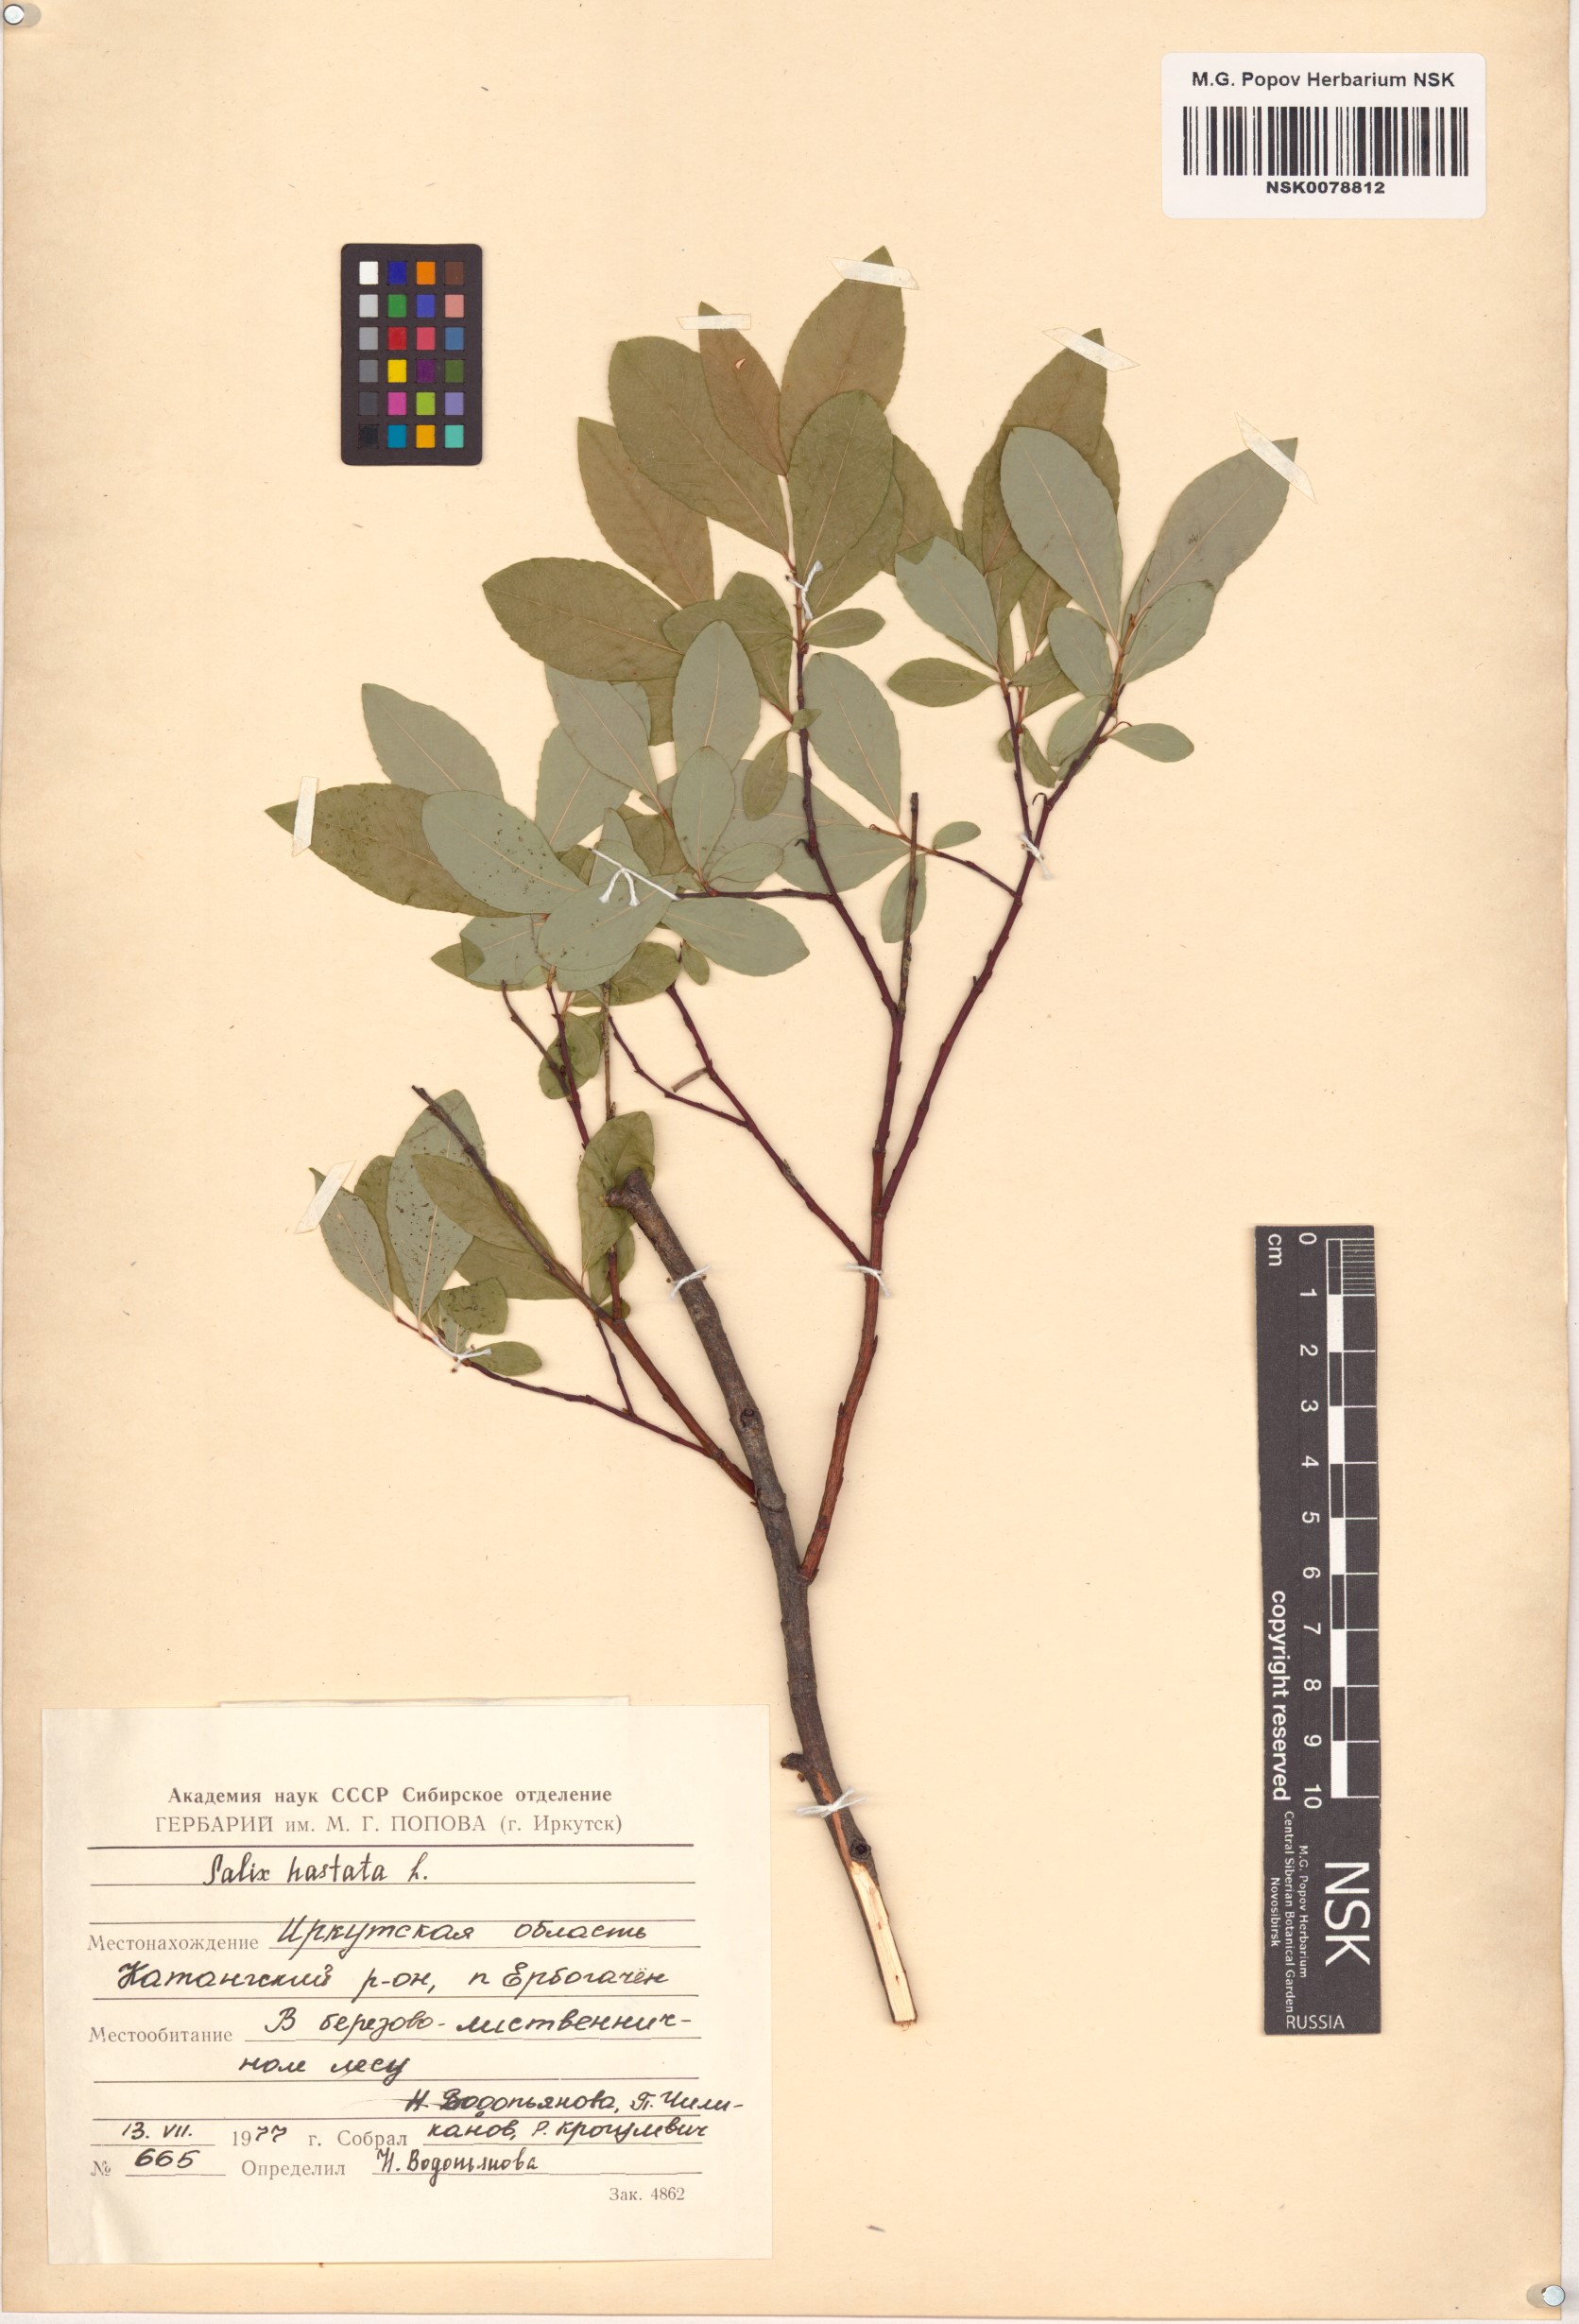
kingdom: Plantae
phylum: Tracheophyta
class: Magnoliopsida
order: Malpighiales
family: Salicaceae
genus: Salix
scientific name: Salix hastata
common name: Halberd willow
